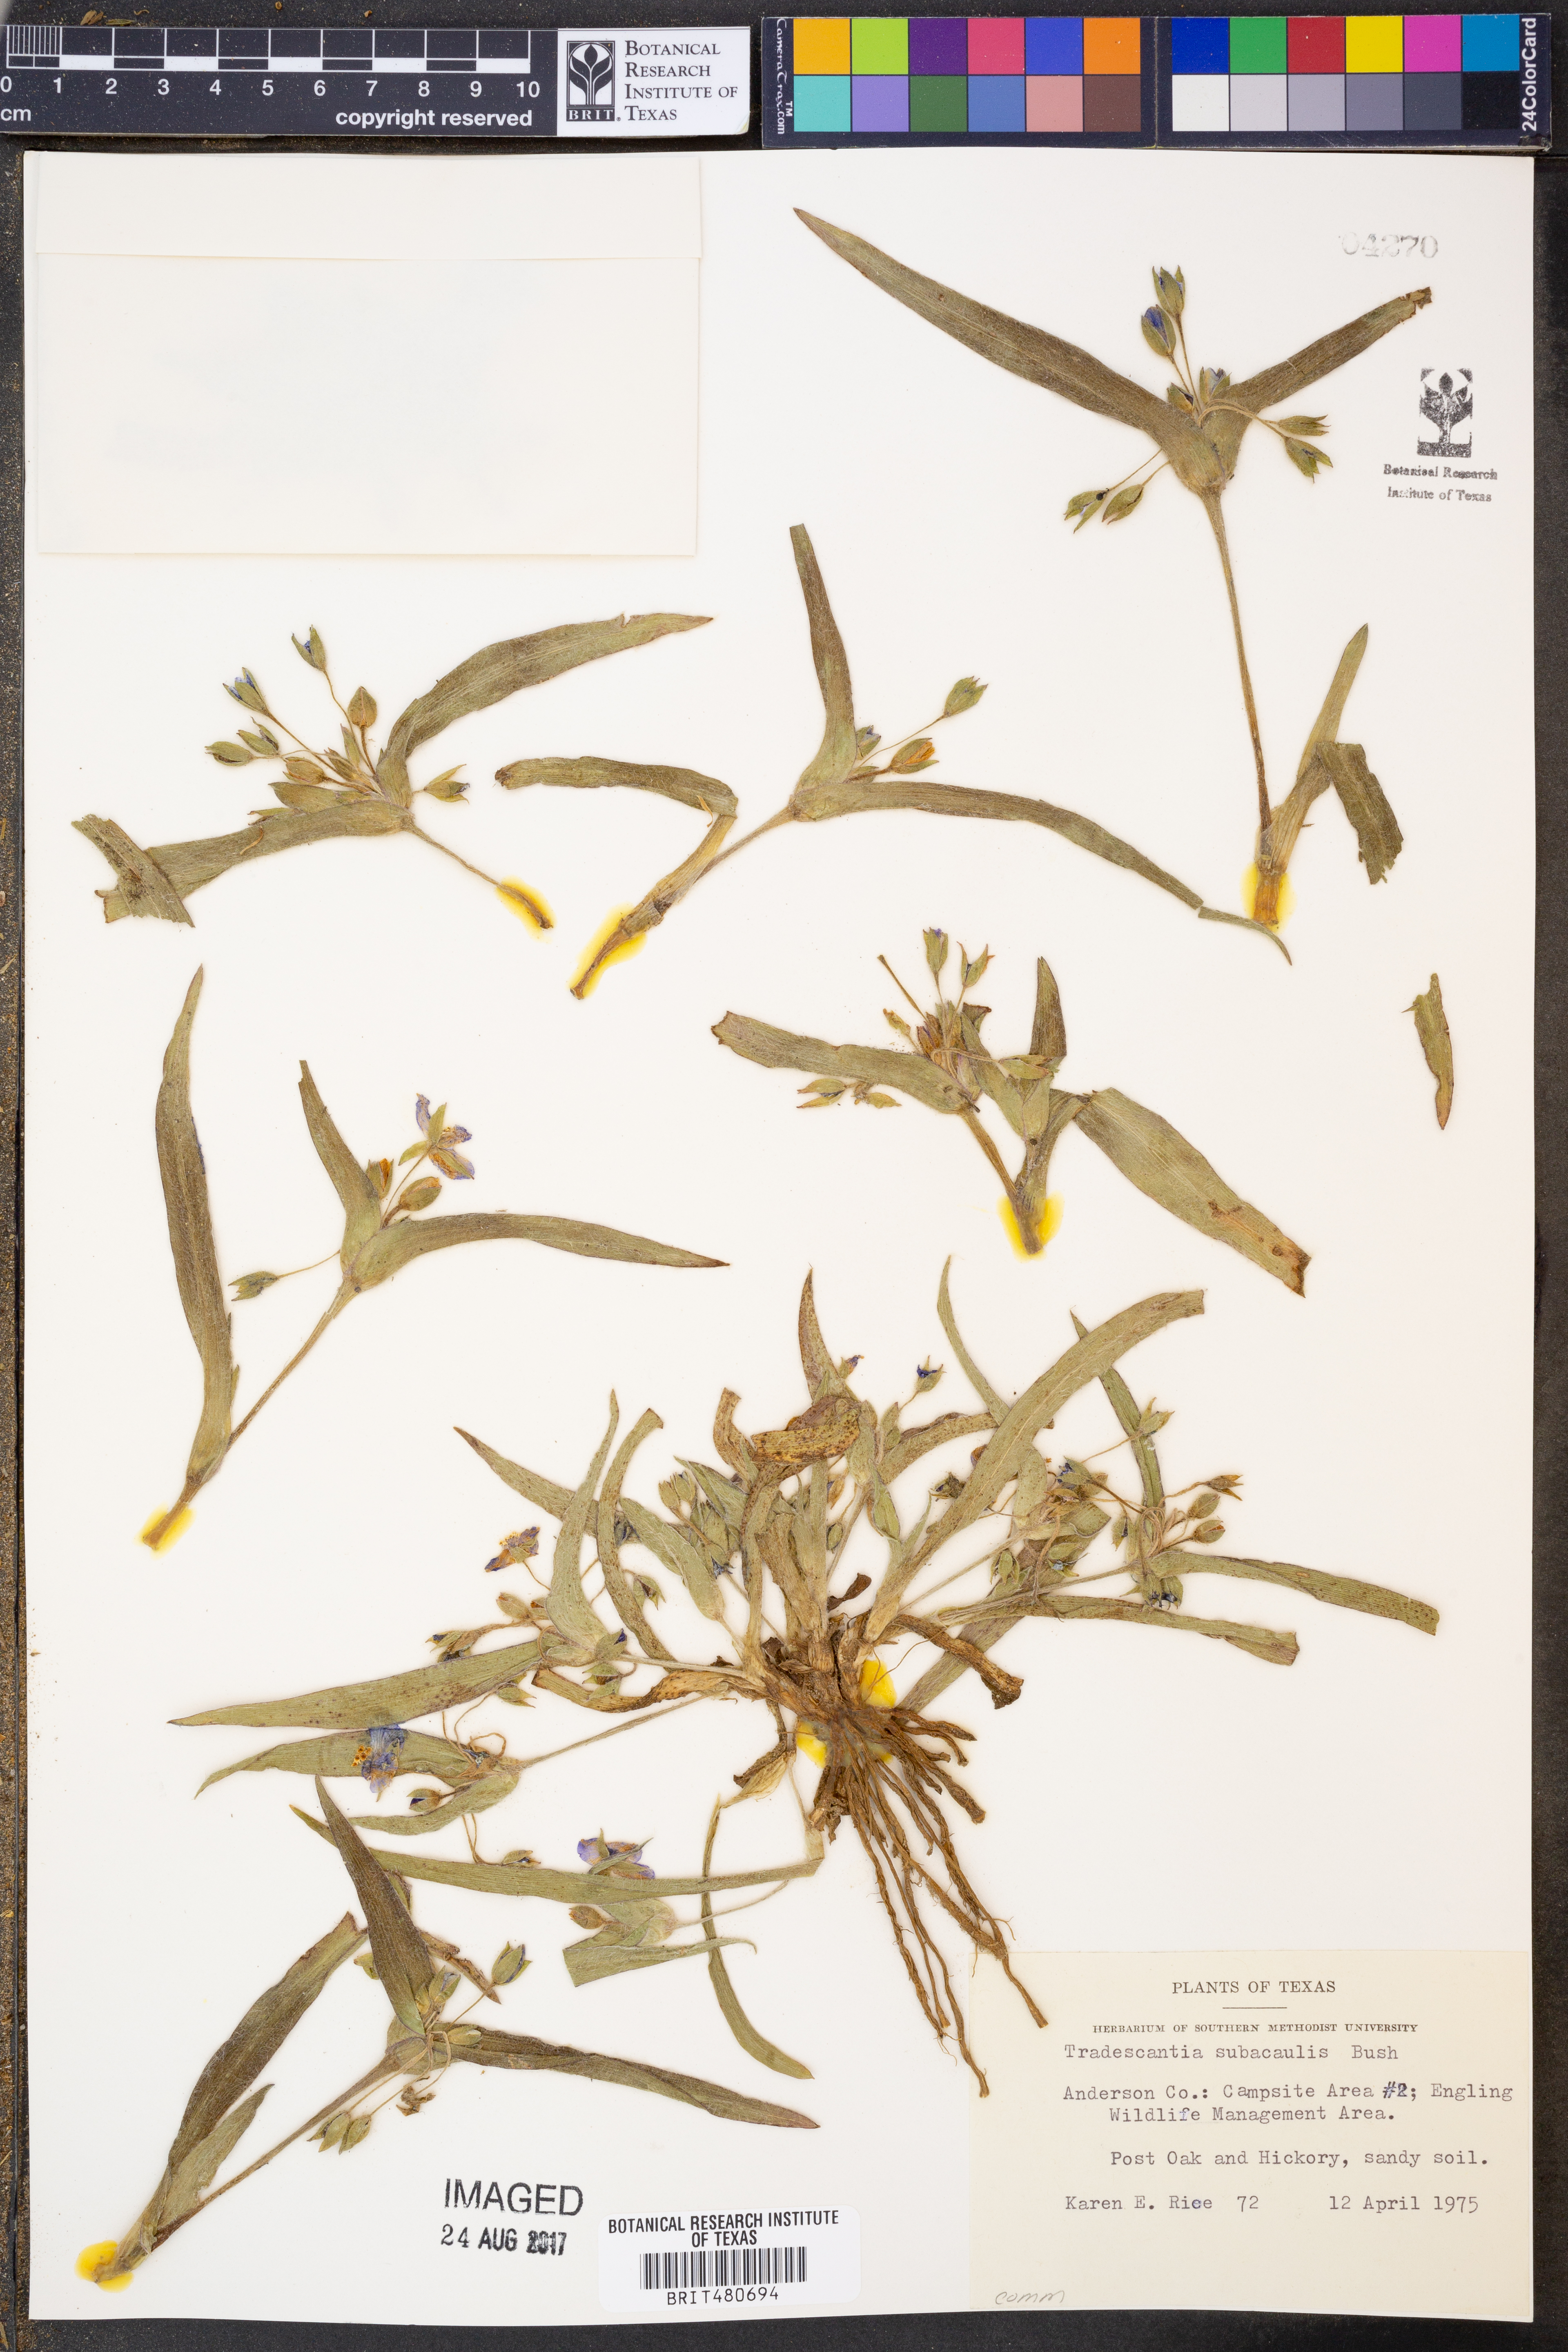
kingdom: Plantae
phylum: Tracheophyta
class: Liliopsida
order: Commelinales
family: Commelinaceae
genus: Tradescantia
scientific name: Tradescantia subacaulis
